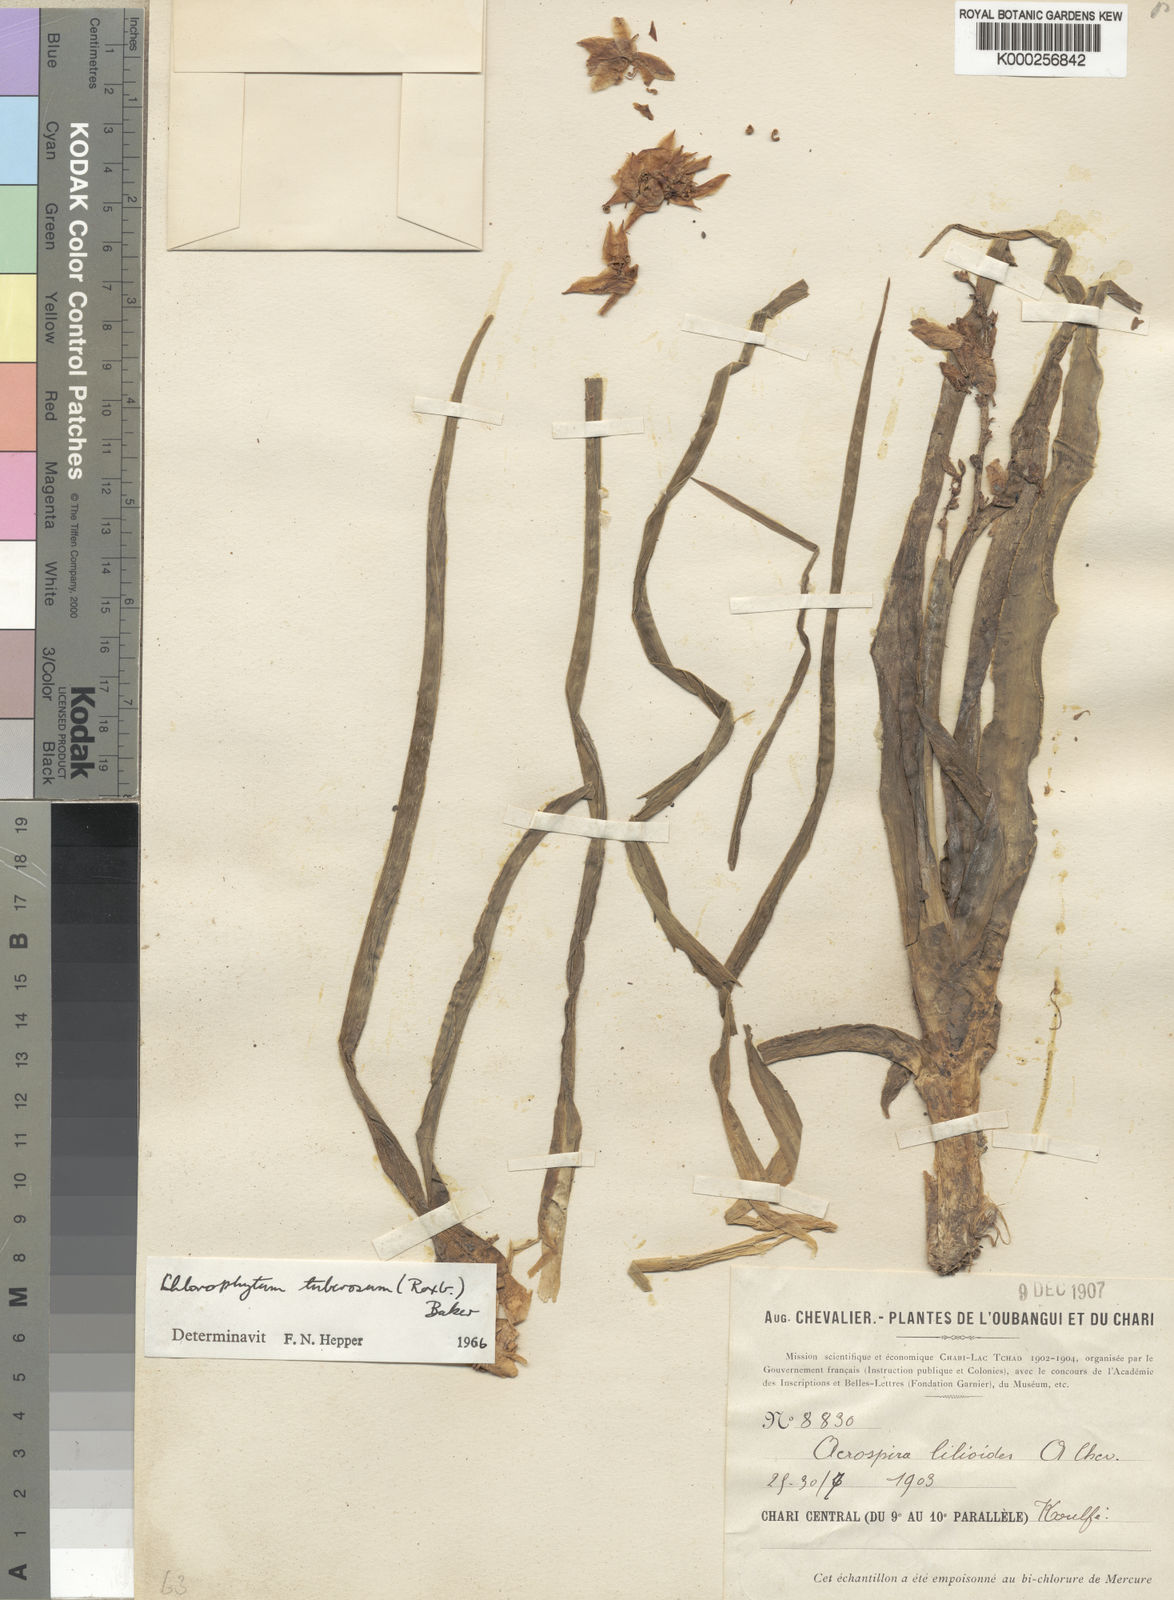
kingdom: Plantae
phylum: Tracheophyta
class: Liliopsida
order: Asparagales
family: Asparagaceae
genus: Chlorophytum
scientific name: Chlorophytum tuberosum
